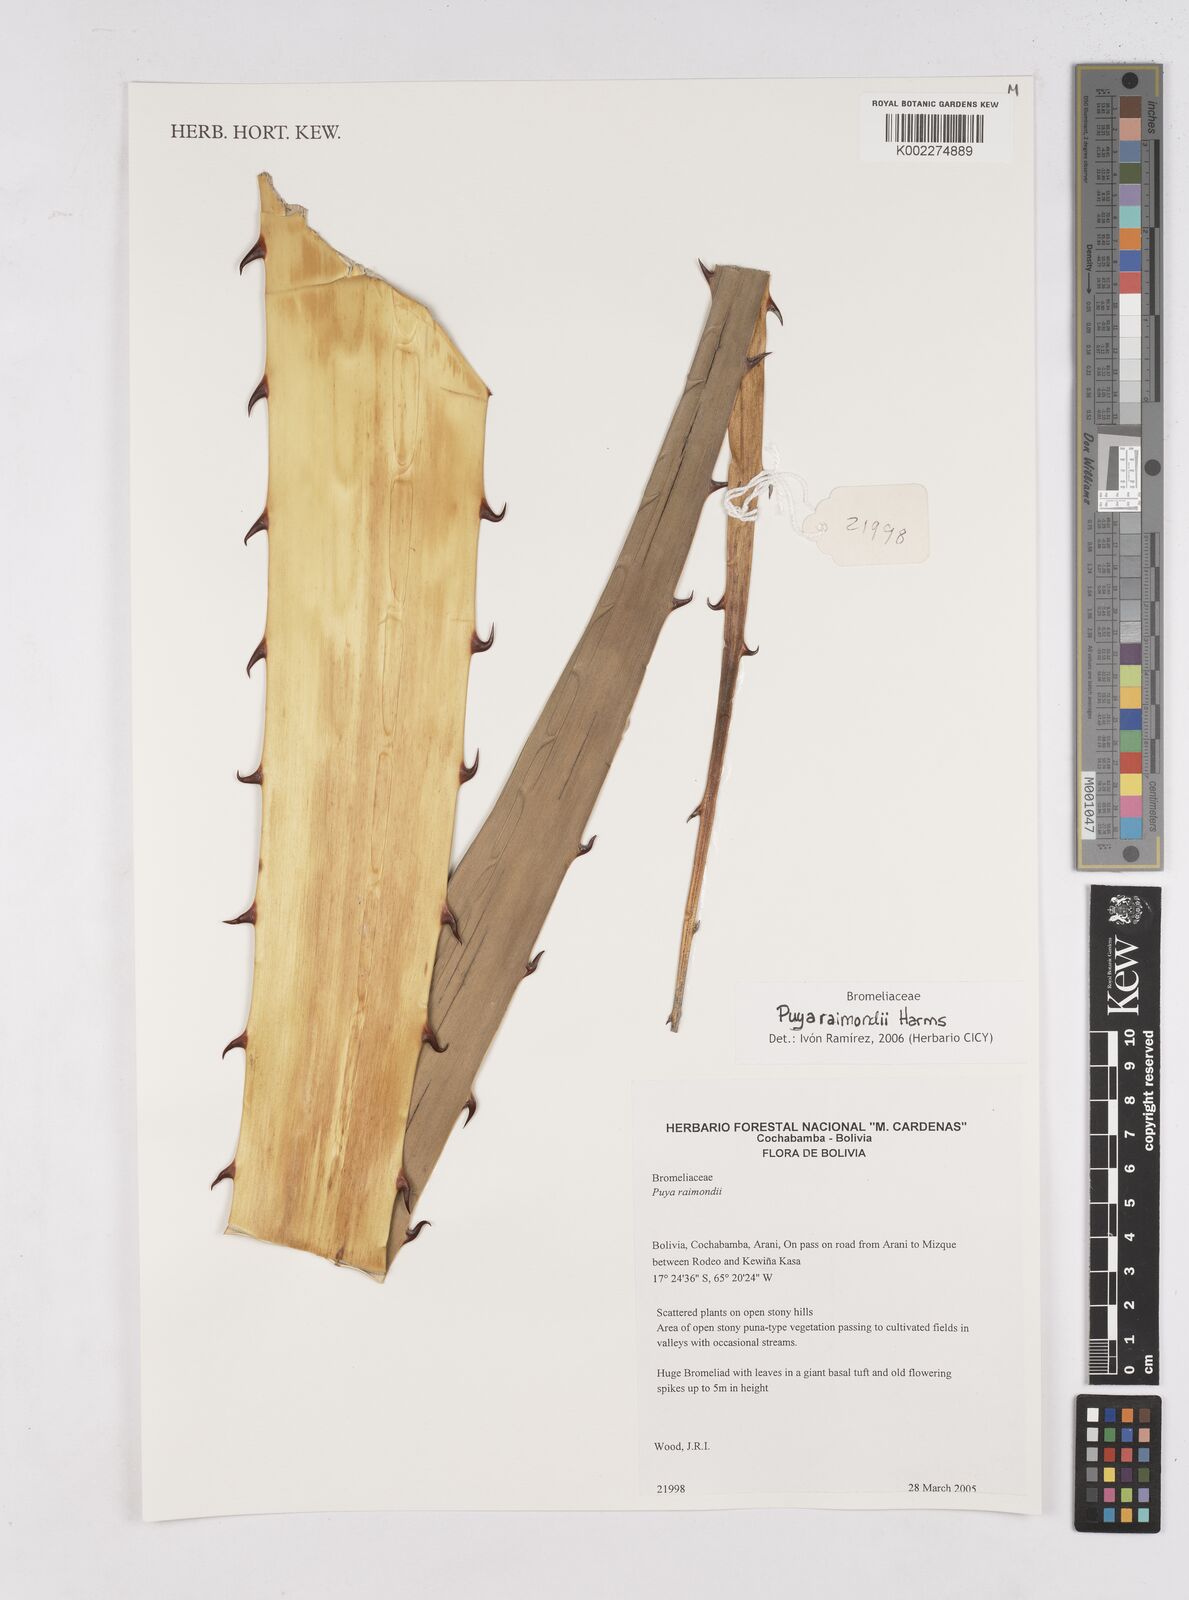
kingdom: Plantae
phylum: Tracheophyta
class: Liliopsida
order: Poales
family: Bromeliaceae
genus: Puya
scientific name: Puya raimondii
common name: Queen of the andes
